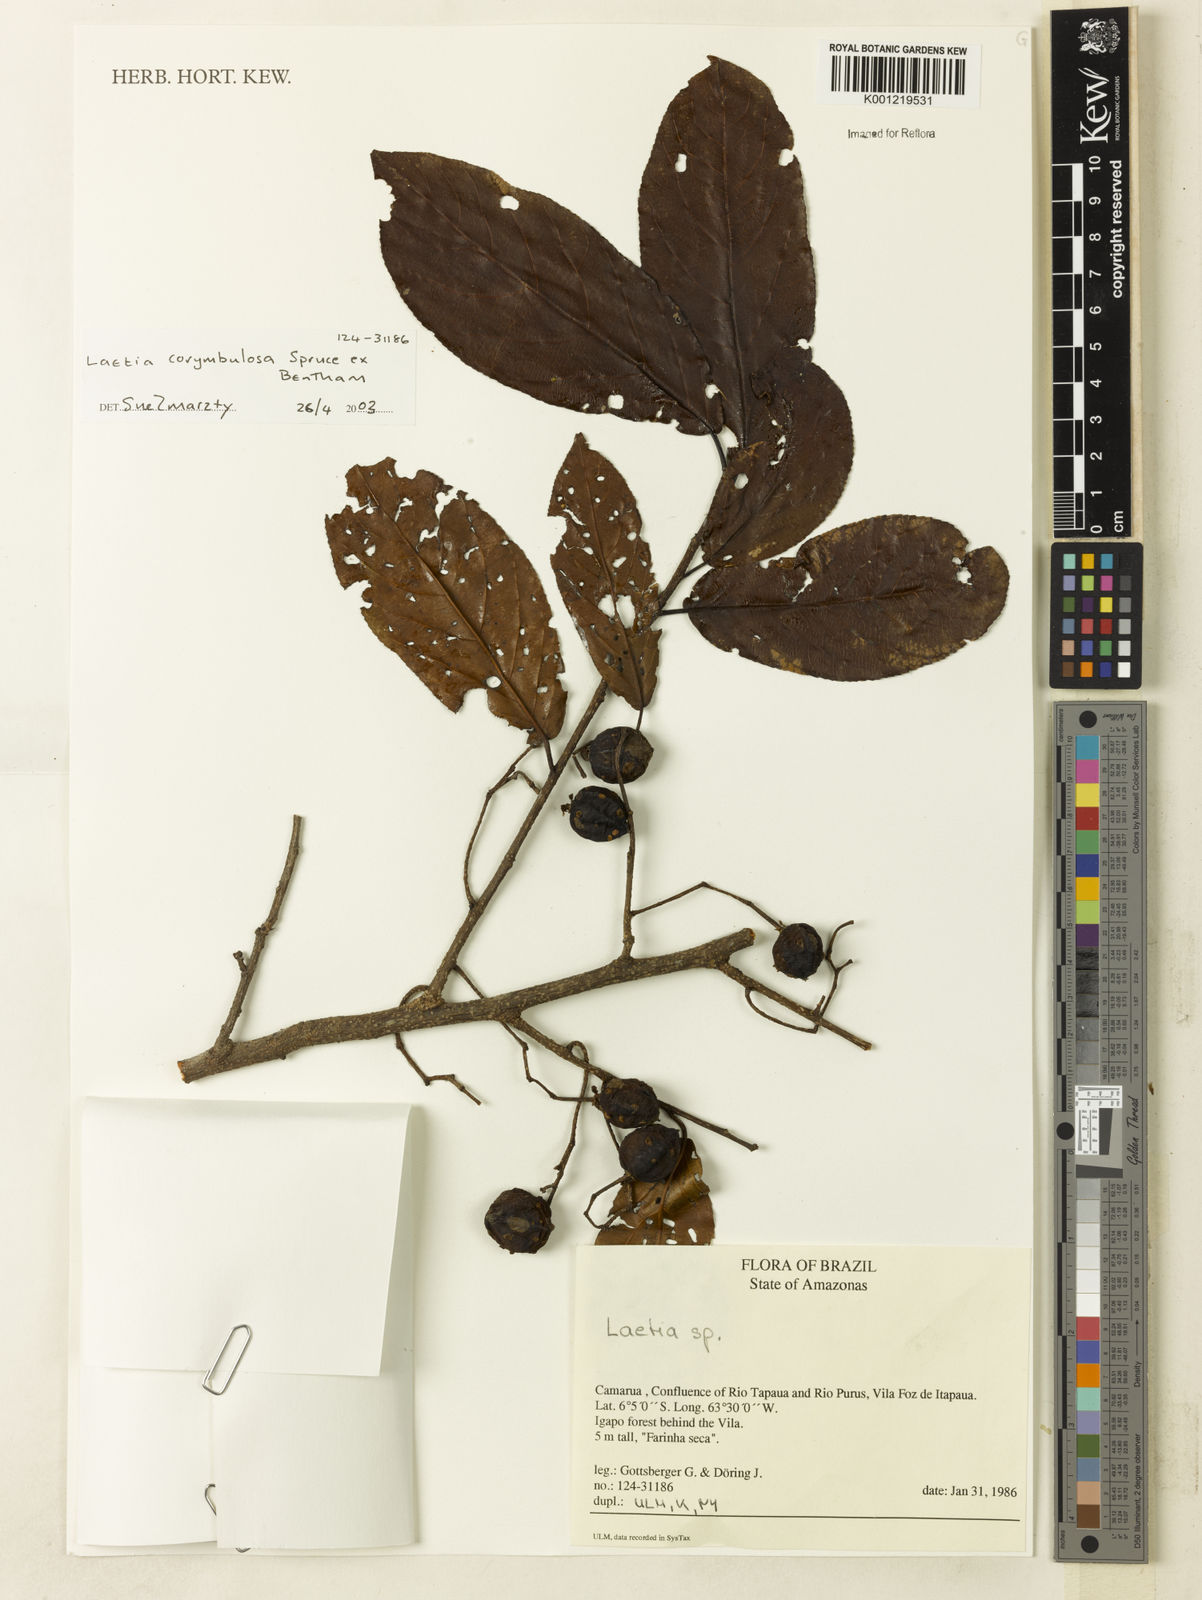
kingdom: Plantae
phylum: Tracheophyta
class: Magnoliopsida
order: Malpighiales
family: Salicaceae
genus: Casearia
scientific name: Casearia corymbulosa
